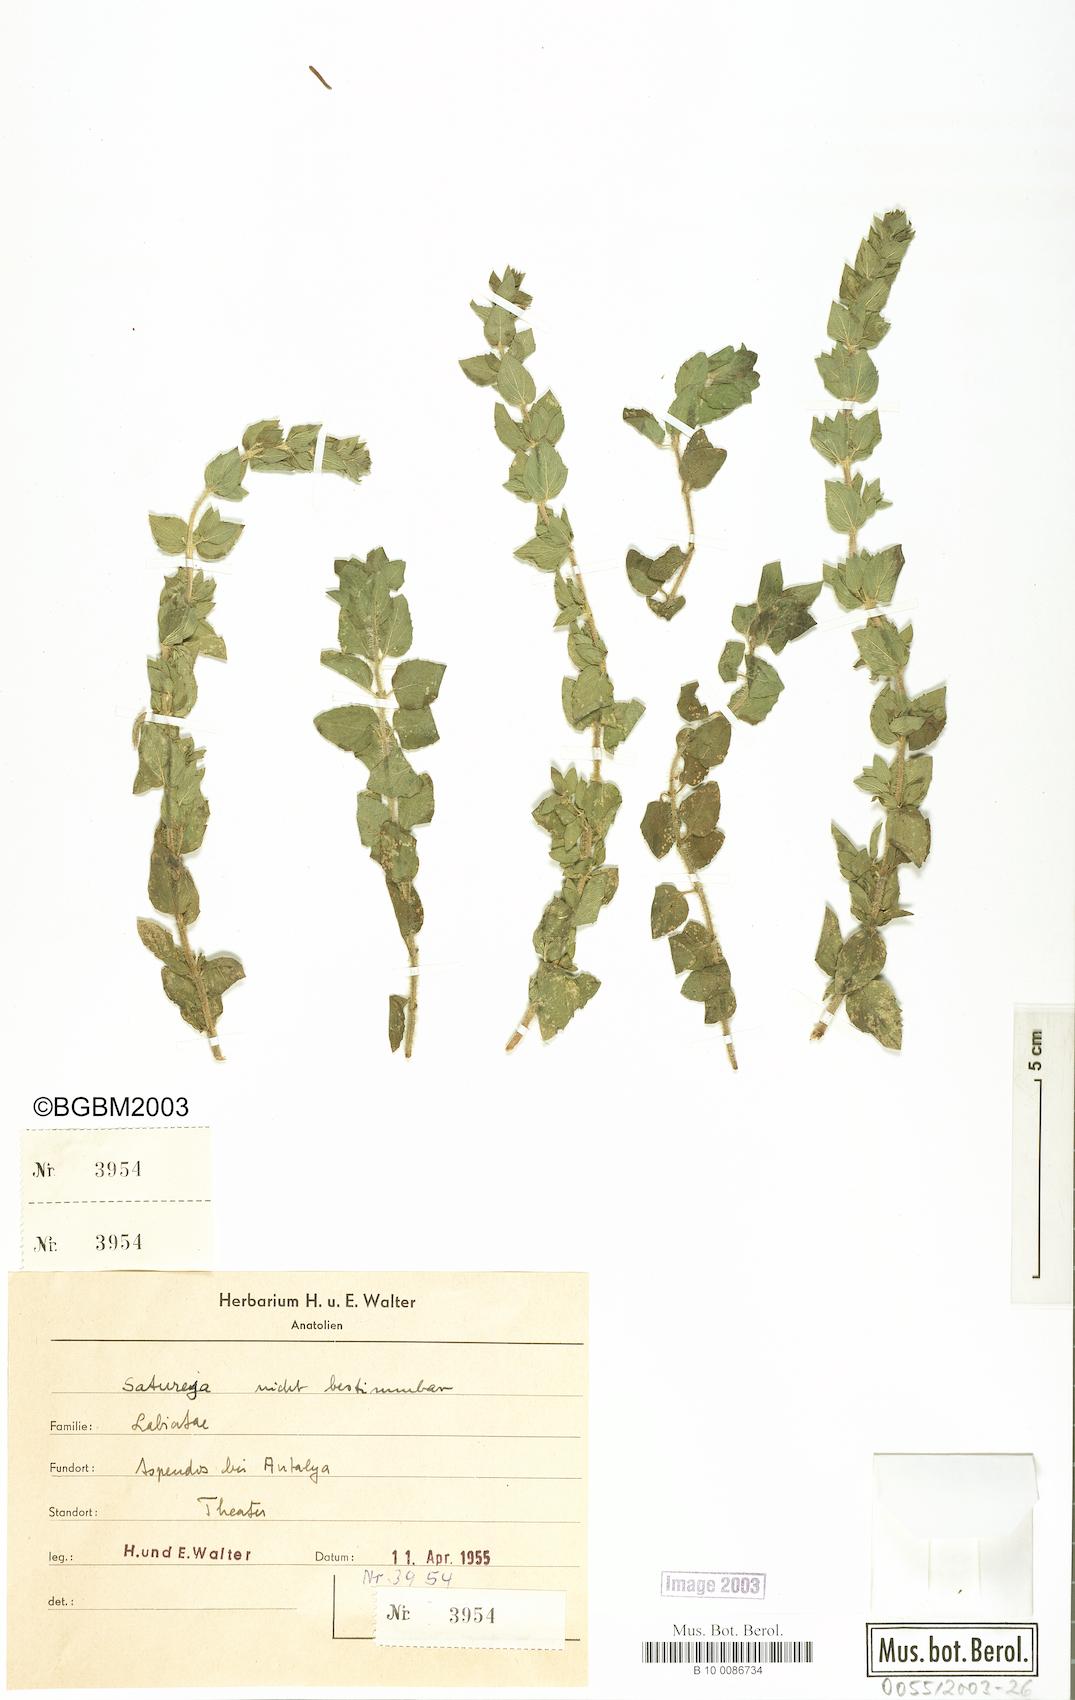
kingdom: Plantae
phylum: Tracheophyta
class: Magnoliopsida
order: Lamiales
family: Lamiaceae
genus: Satureja
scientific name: Satureja
